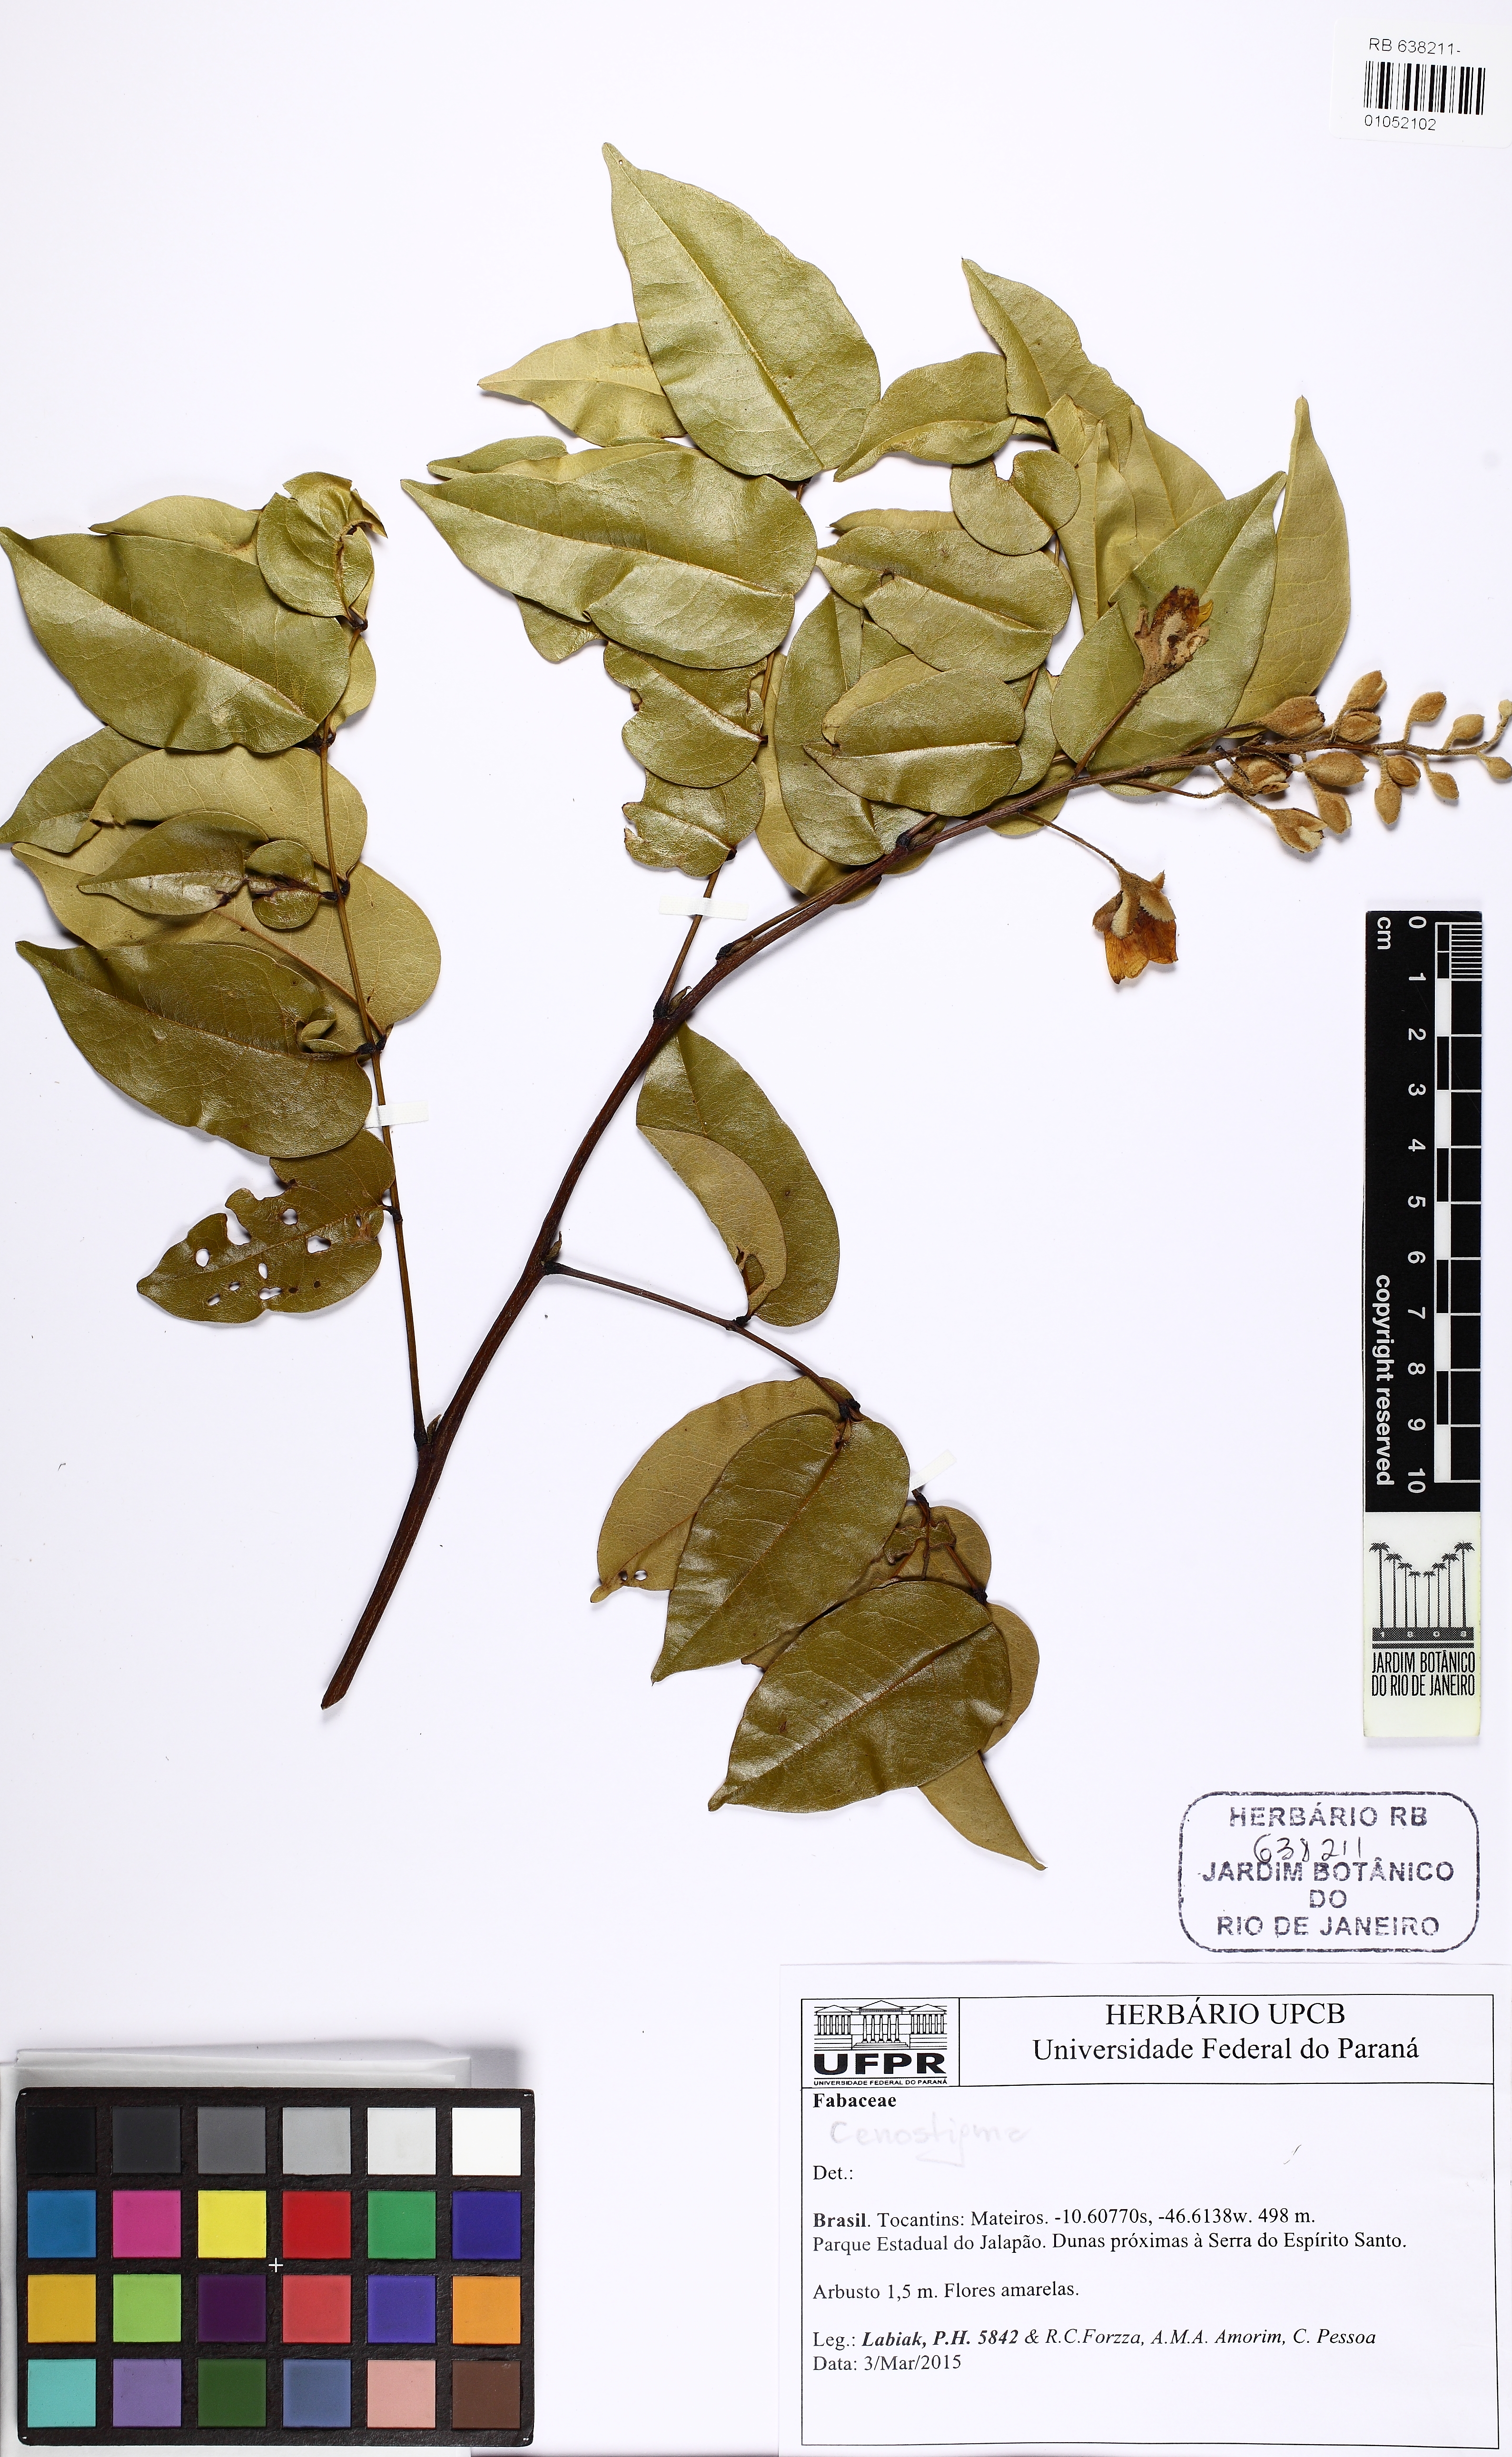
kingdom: Plantae
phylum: Tracheophyta
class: Magnoliopsida
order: Fabales
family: Fabaceae
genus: Cenostigma
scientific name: Cenostigma
